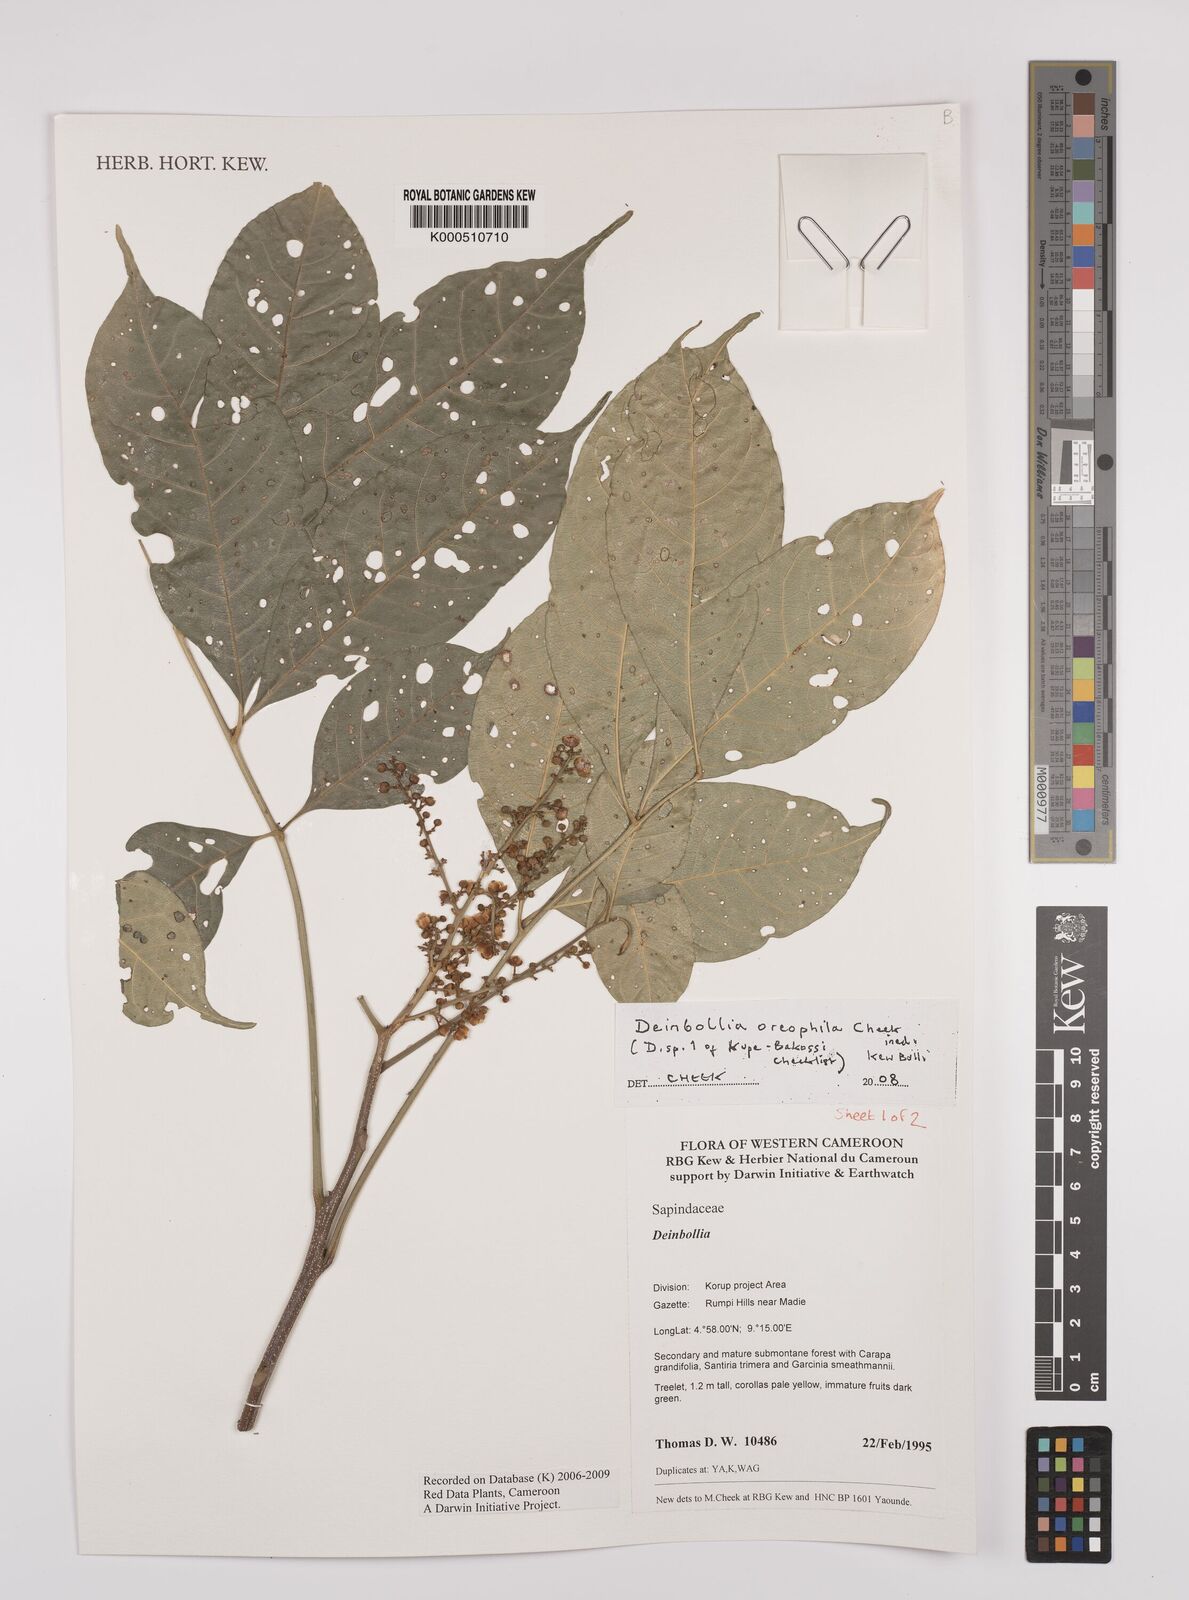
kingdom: Plantae
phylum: Tracheophyta
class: Magnoliopsida
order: Sapindales
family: Sapindaceae
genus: Deinbollia
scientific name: Deinbollia oreophila
